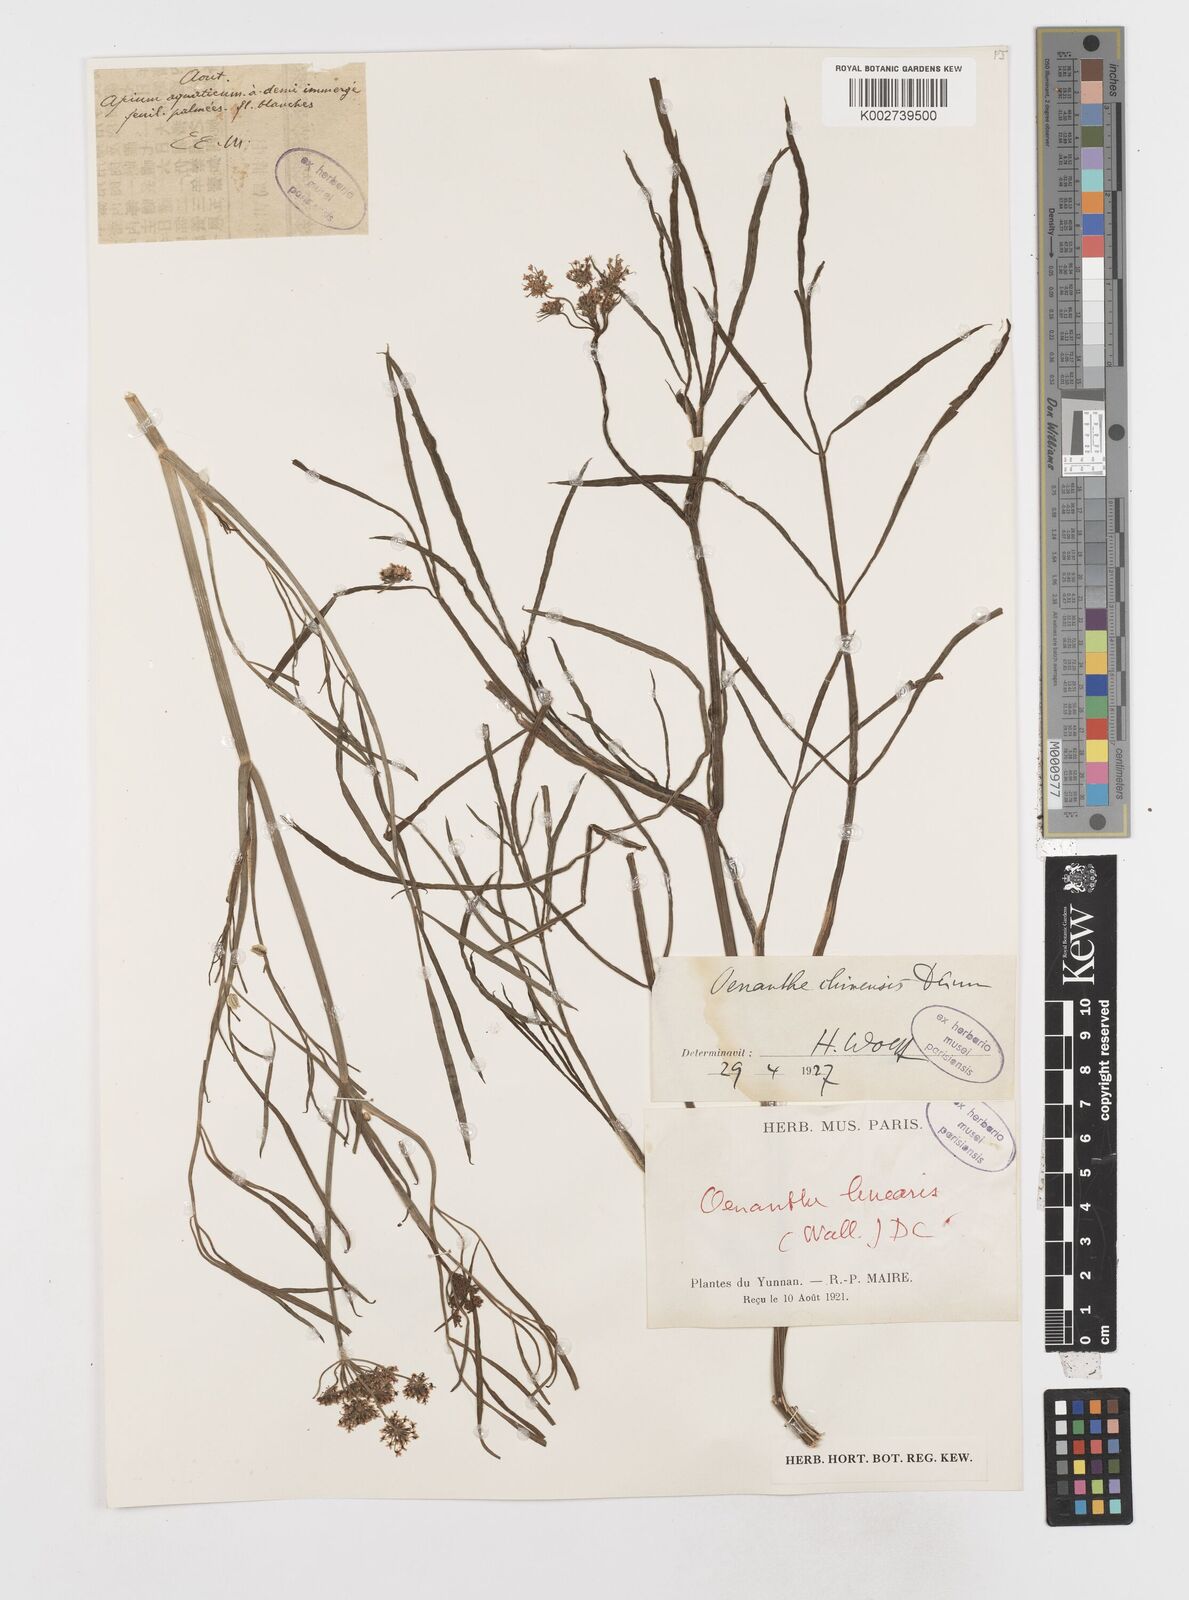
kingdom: Plantae
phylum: Tracheophyta
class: Magnoliopsida
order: Apiales
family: Apiaceae
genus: Oenanthe
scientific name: Oenanthe linearis
